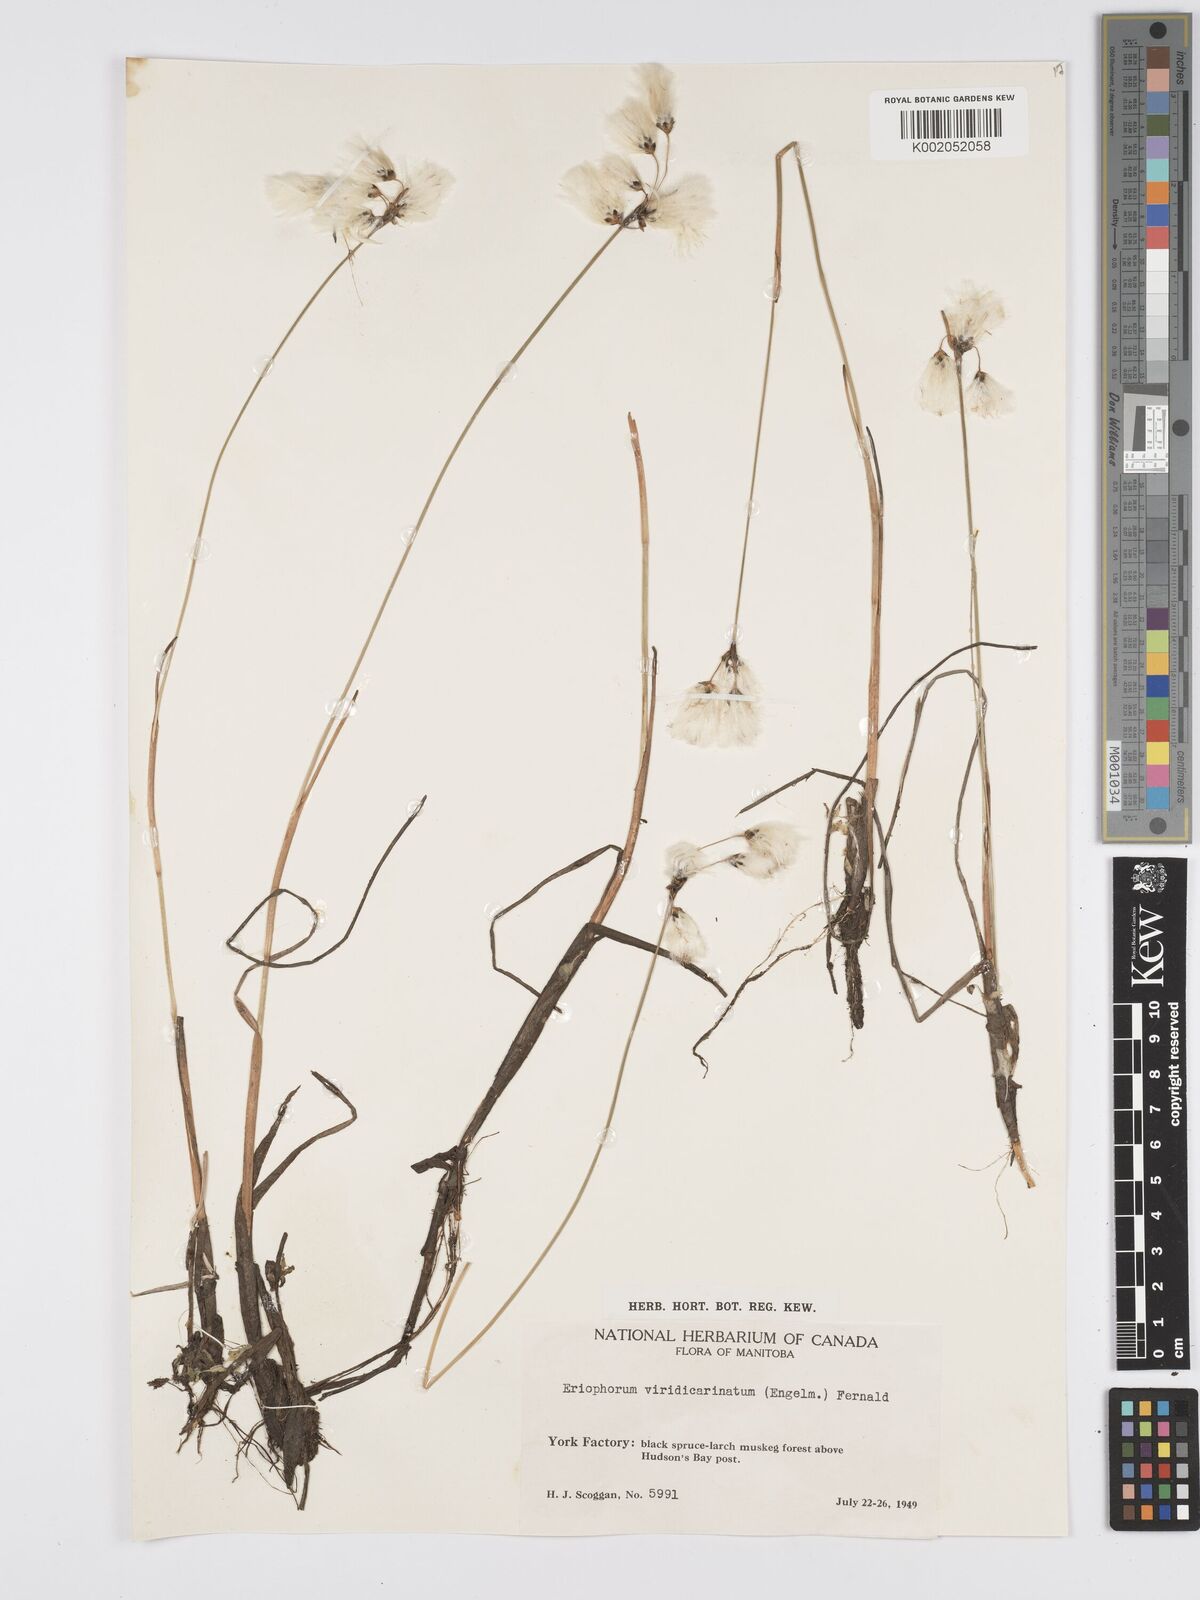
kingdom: Plantae
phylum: Tracheophyta
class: Liliopsida
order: Poales
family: Cyperaceae
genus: Eriophorum
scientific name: Eriophorum viridicarinatum
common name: Green-keeled cottongrass
